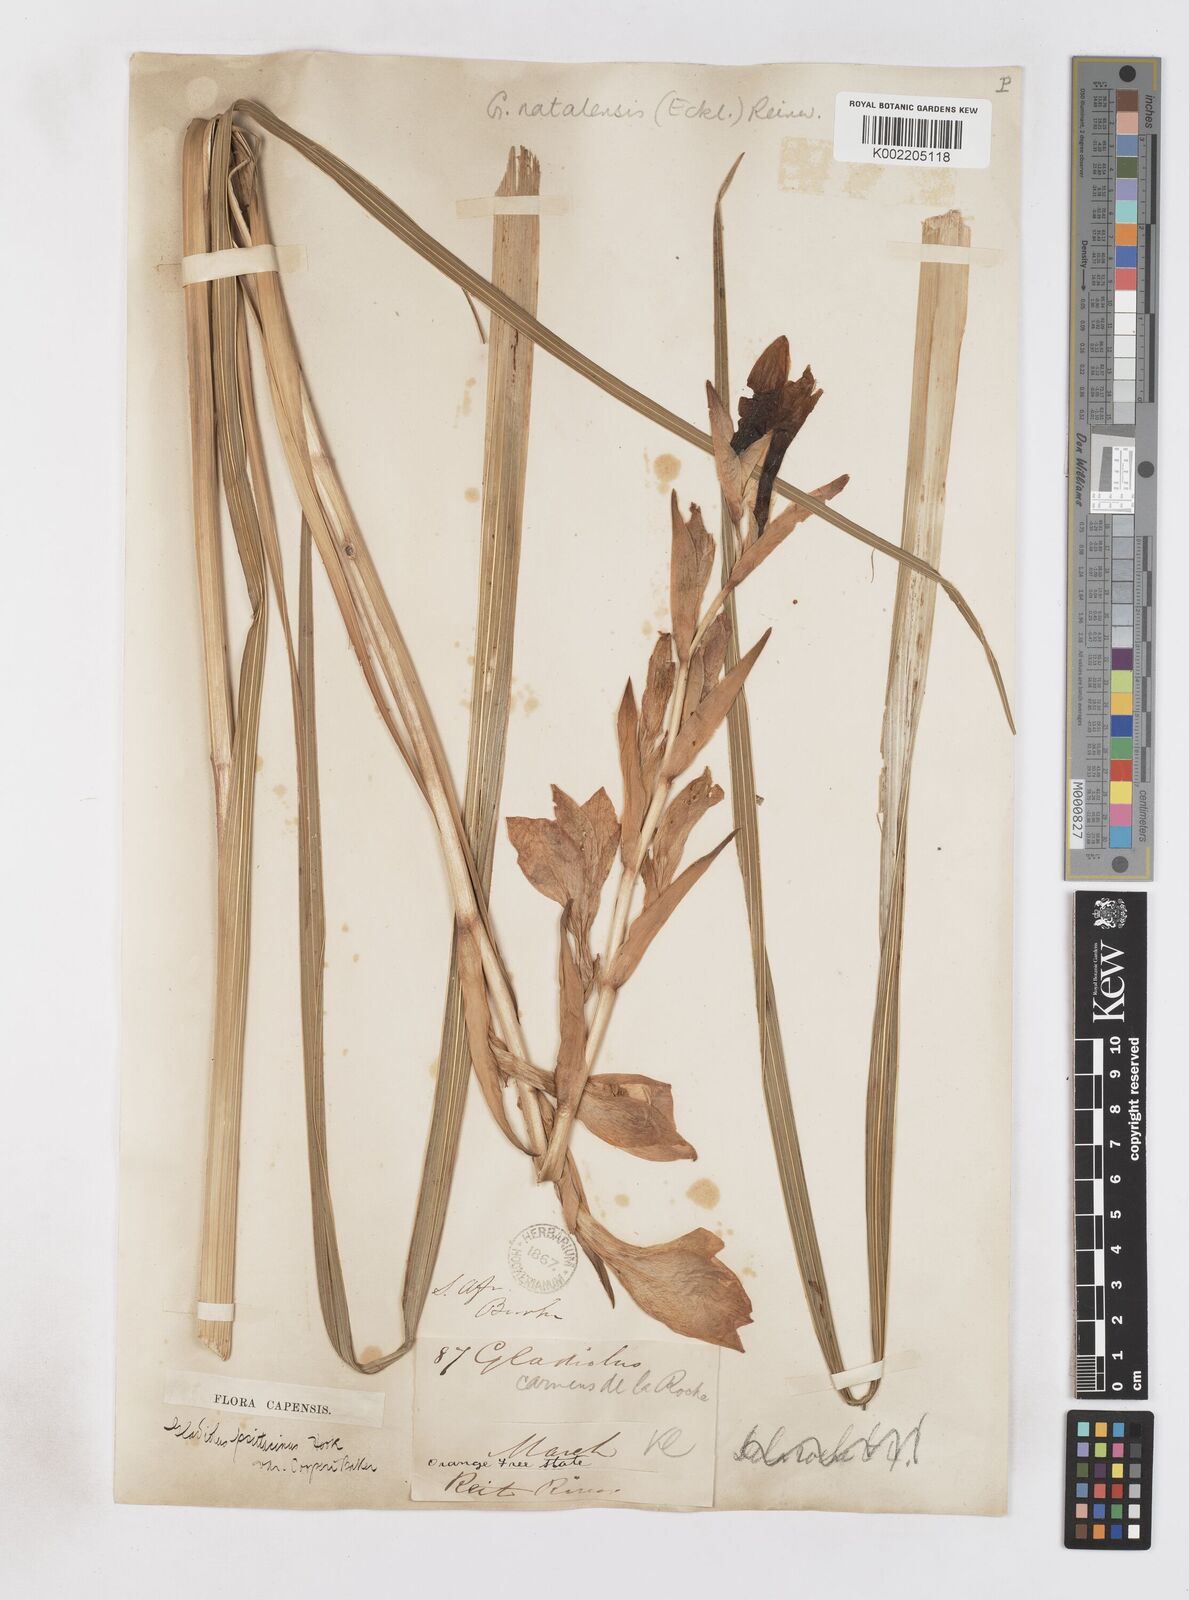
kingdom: Plantae
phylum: Tracheophyta
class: Liliopsida
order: Asparagales
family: Iridaceae
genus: Gladiolus
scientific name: Gladiolus dalenii
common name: Cornflag
